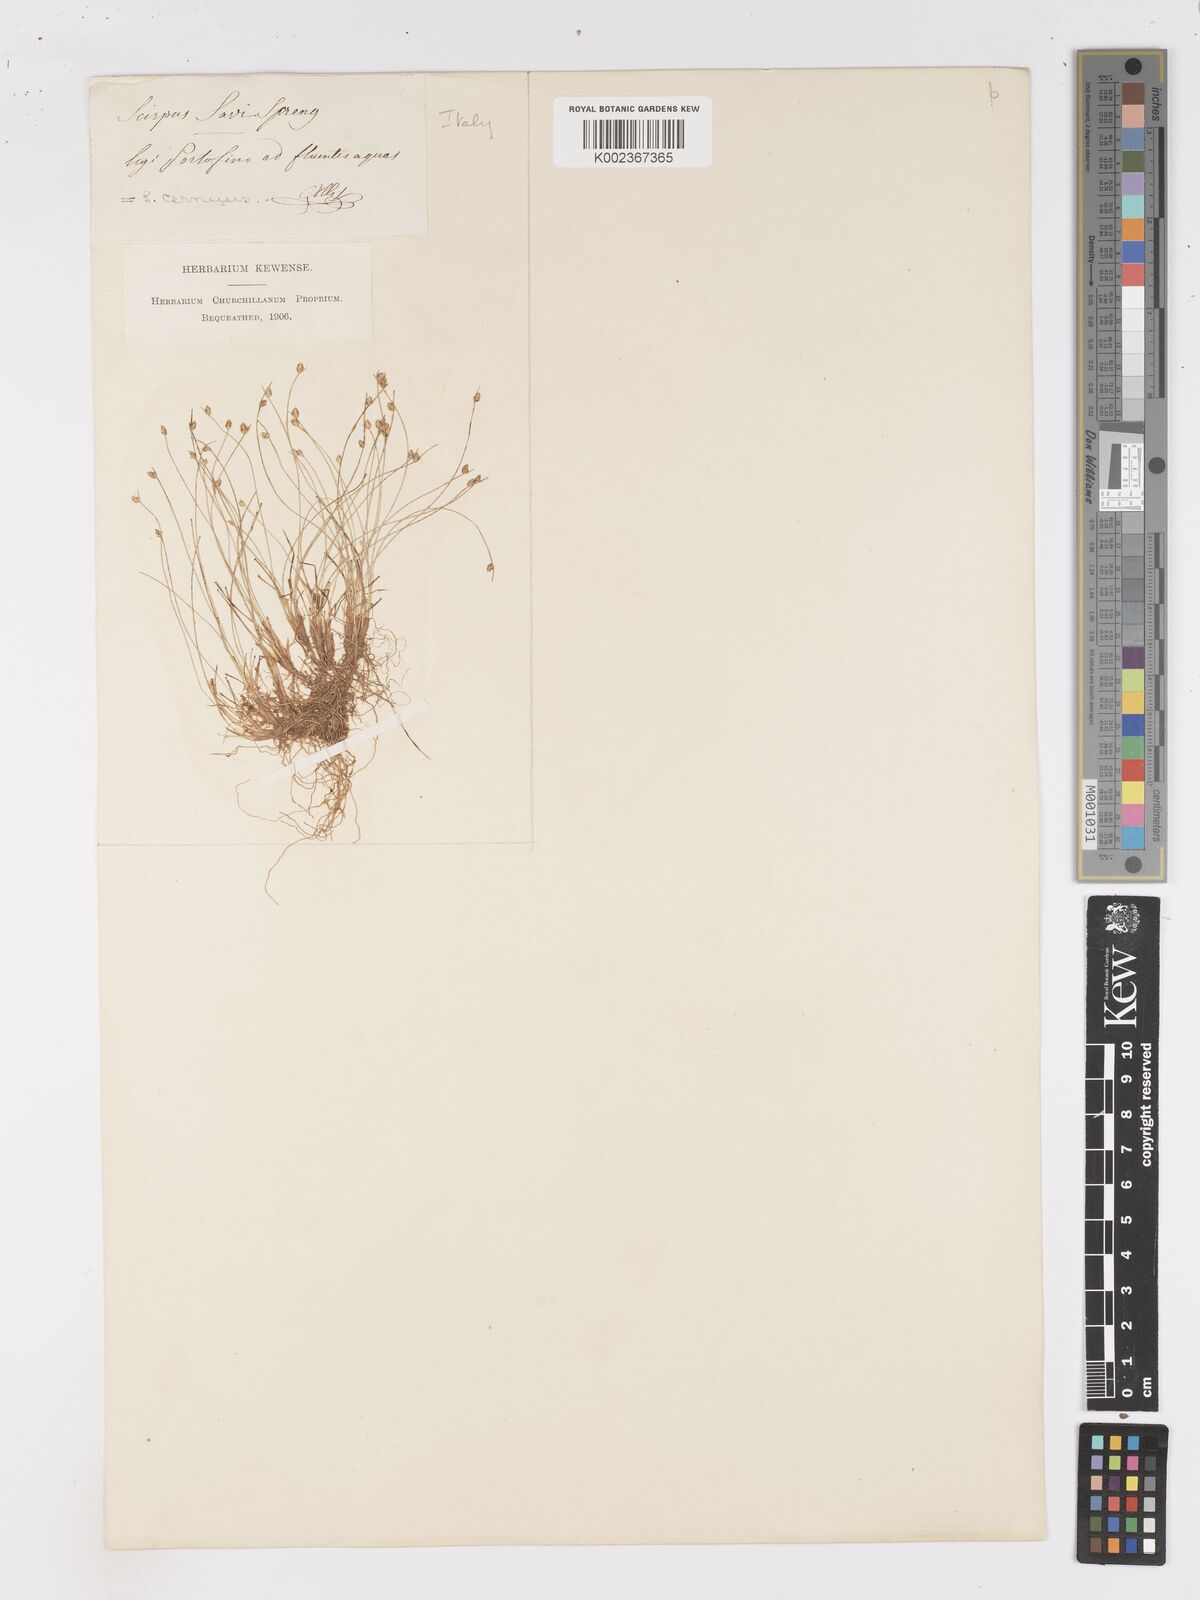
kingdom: Plantae
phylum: Tracheophyta
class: Liliopsida
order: Poales
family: Cyperaceae
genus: Isolepis
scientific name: Isolepis cernua
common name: Slender club-rush
